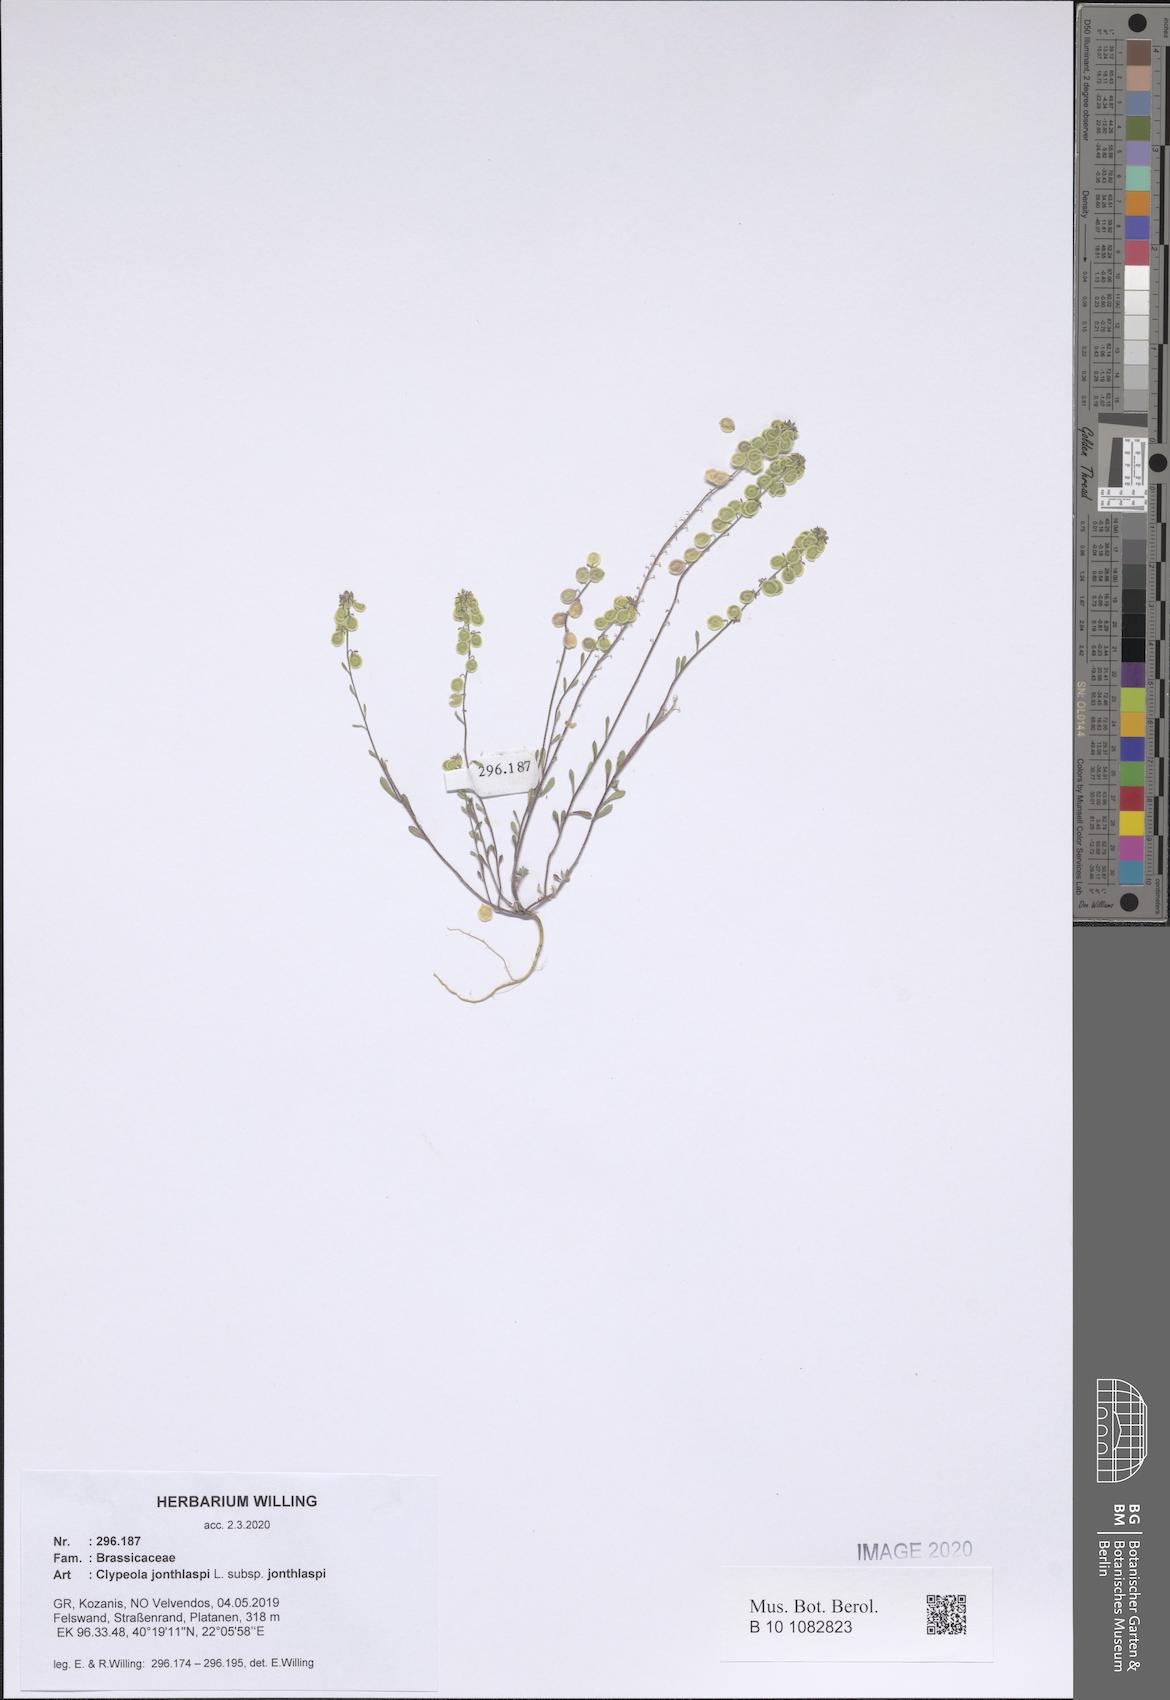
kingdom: Plantae
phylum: Tracheophyta
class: Magnoliopsida
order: Brassicales
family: Brassicaceae
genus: Clypeola
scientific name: Clypeola jonthlaspi
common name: Disk cress
